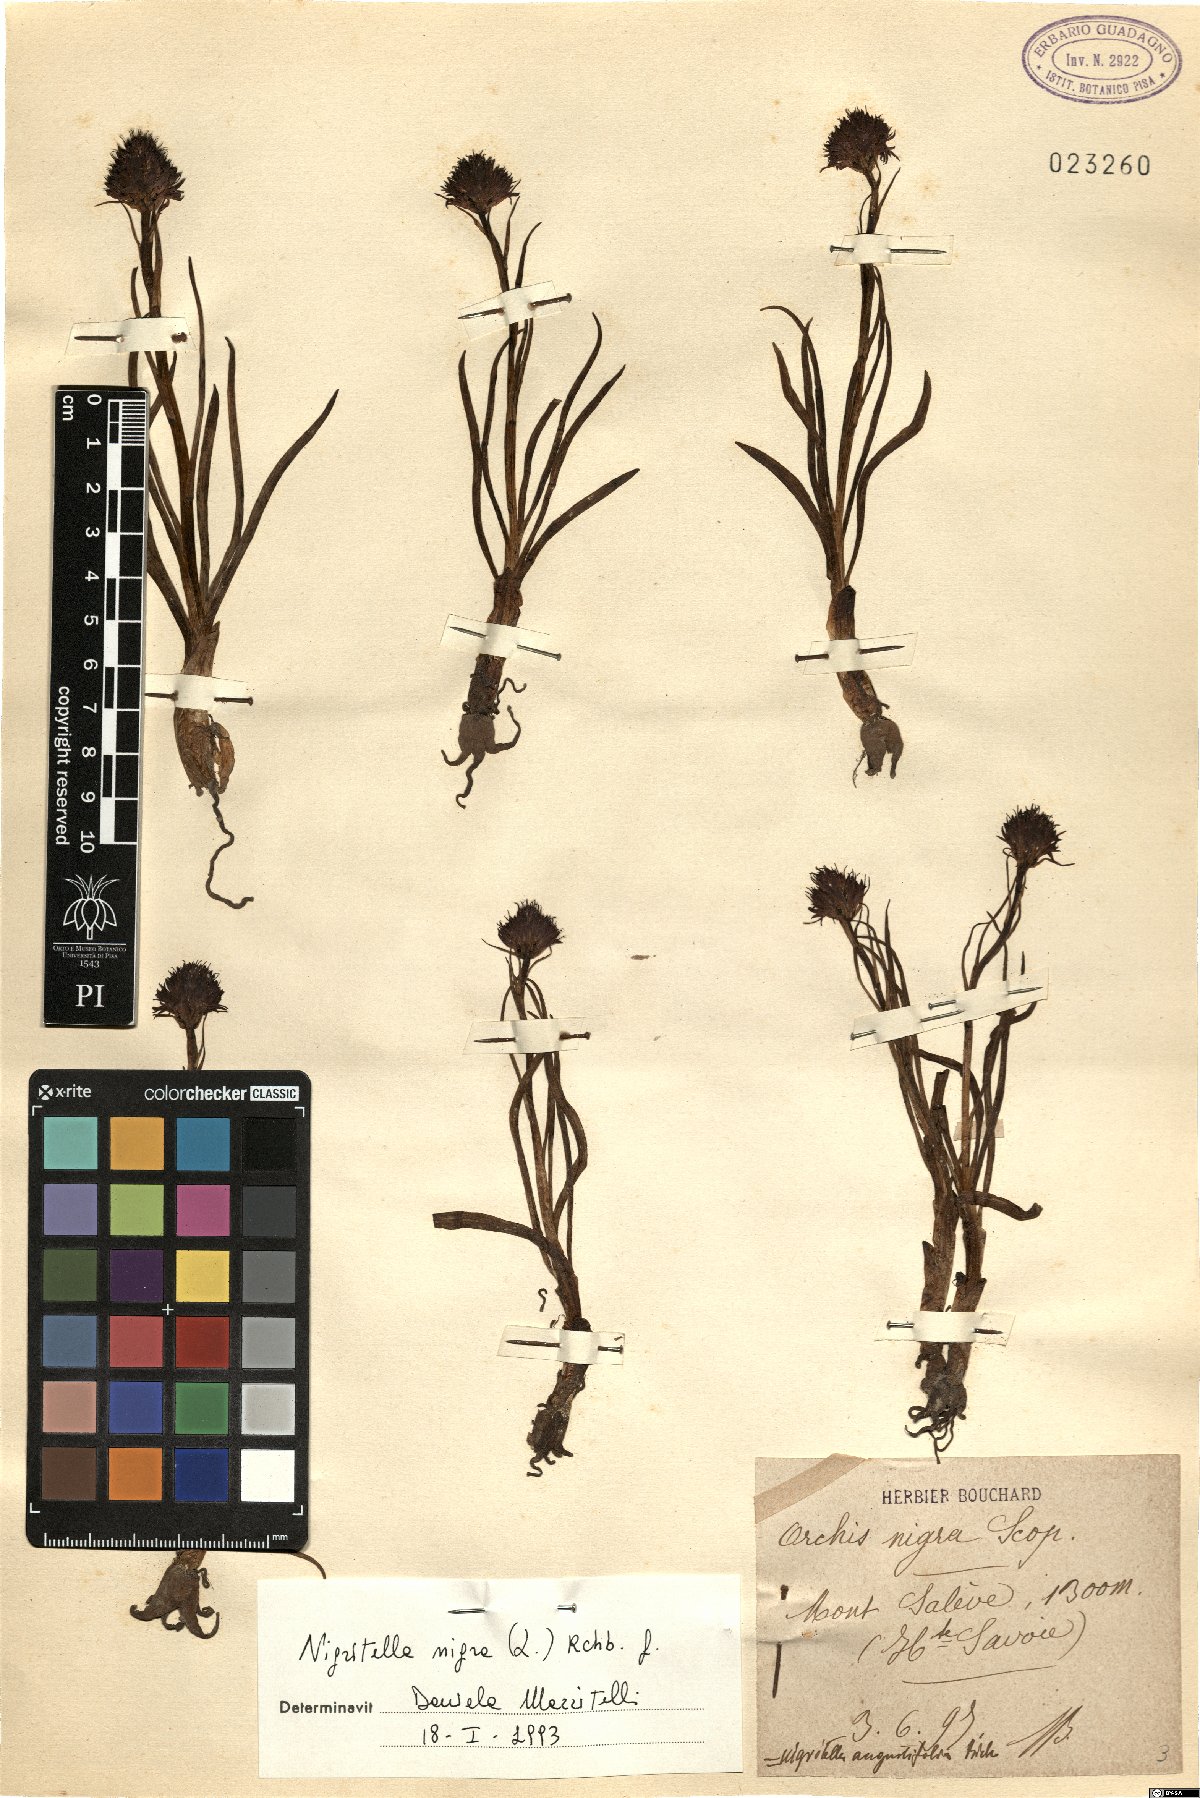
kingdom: Plantae
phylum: Tracheophyta
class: Liliopsida
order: Asparagales
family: Orchidaceae
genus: Gymnadenia
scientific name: Gymnadenia nigra
